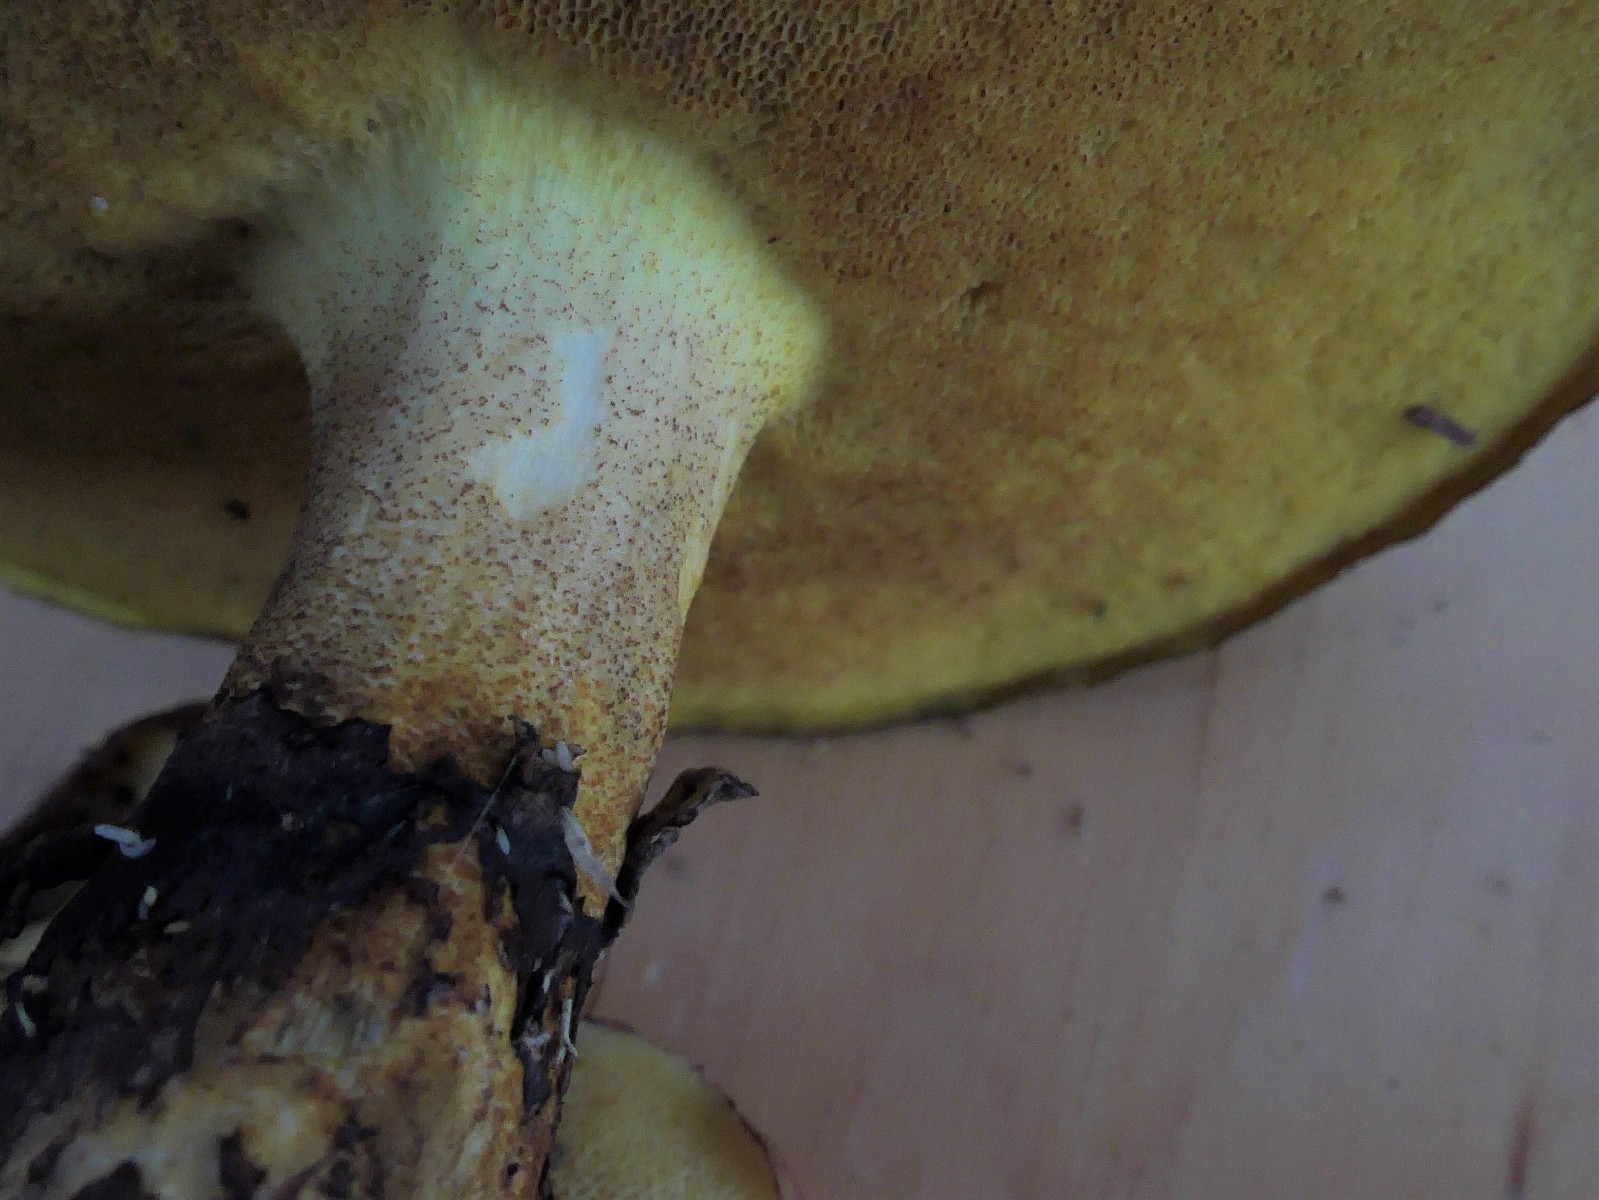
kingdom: Fungi
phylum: Basidiomycota
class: Agaricomycetes
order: Boletales
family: Suillaceae
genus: Suillus
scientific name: Suillus granulatus
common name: kornet slimrørhat
